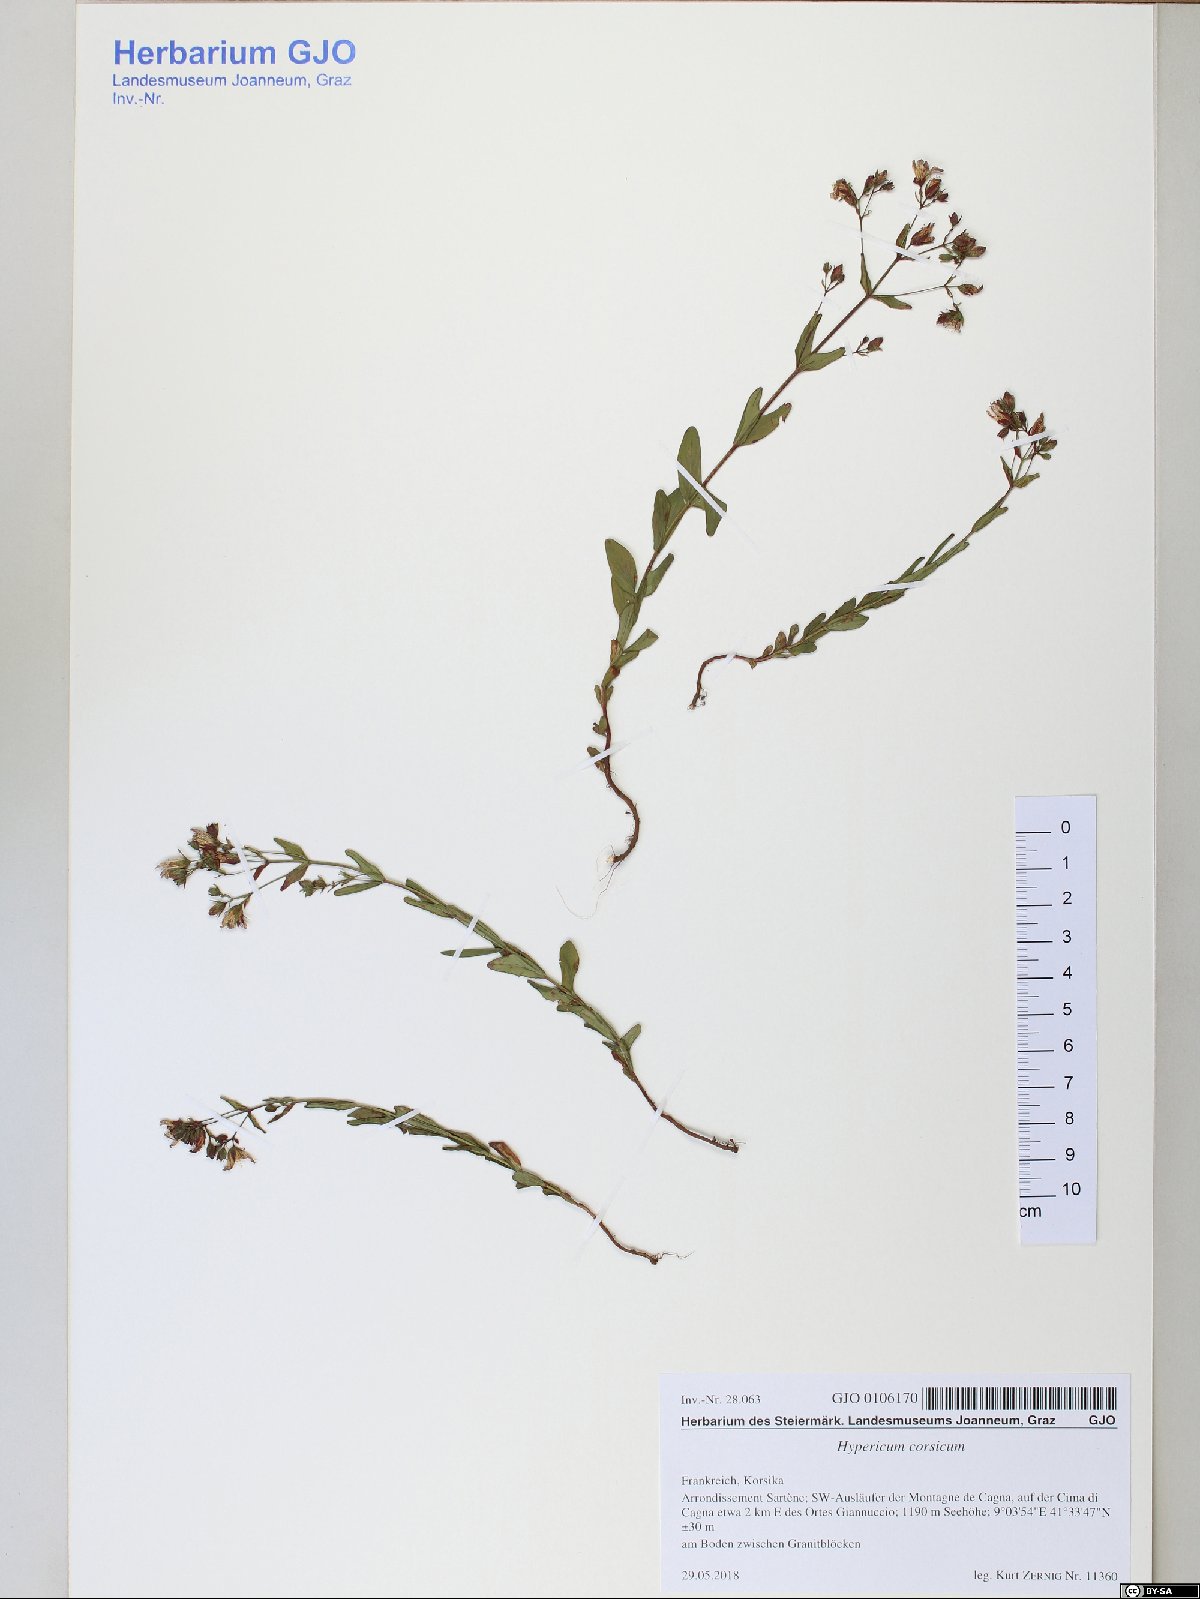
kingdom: Plantae
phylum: Tracheophyta
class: Magnoliopsida
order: Malpighiales
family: Hypericaceae
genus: Hypericum
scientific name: Hypericum tetrapterum
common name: Square-stalked st. john's-wort
